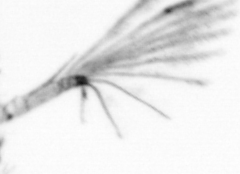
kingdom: Animalia
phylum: Annelida
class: Polychaeta
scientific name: Polychaeta
